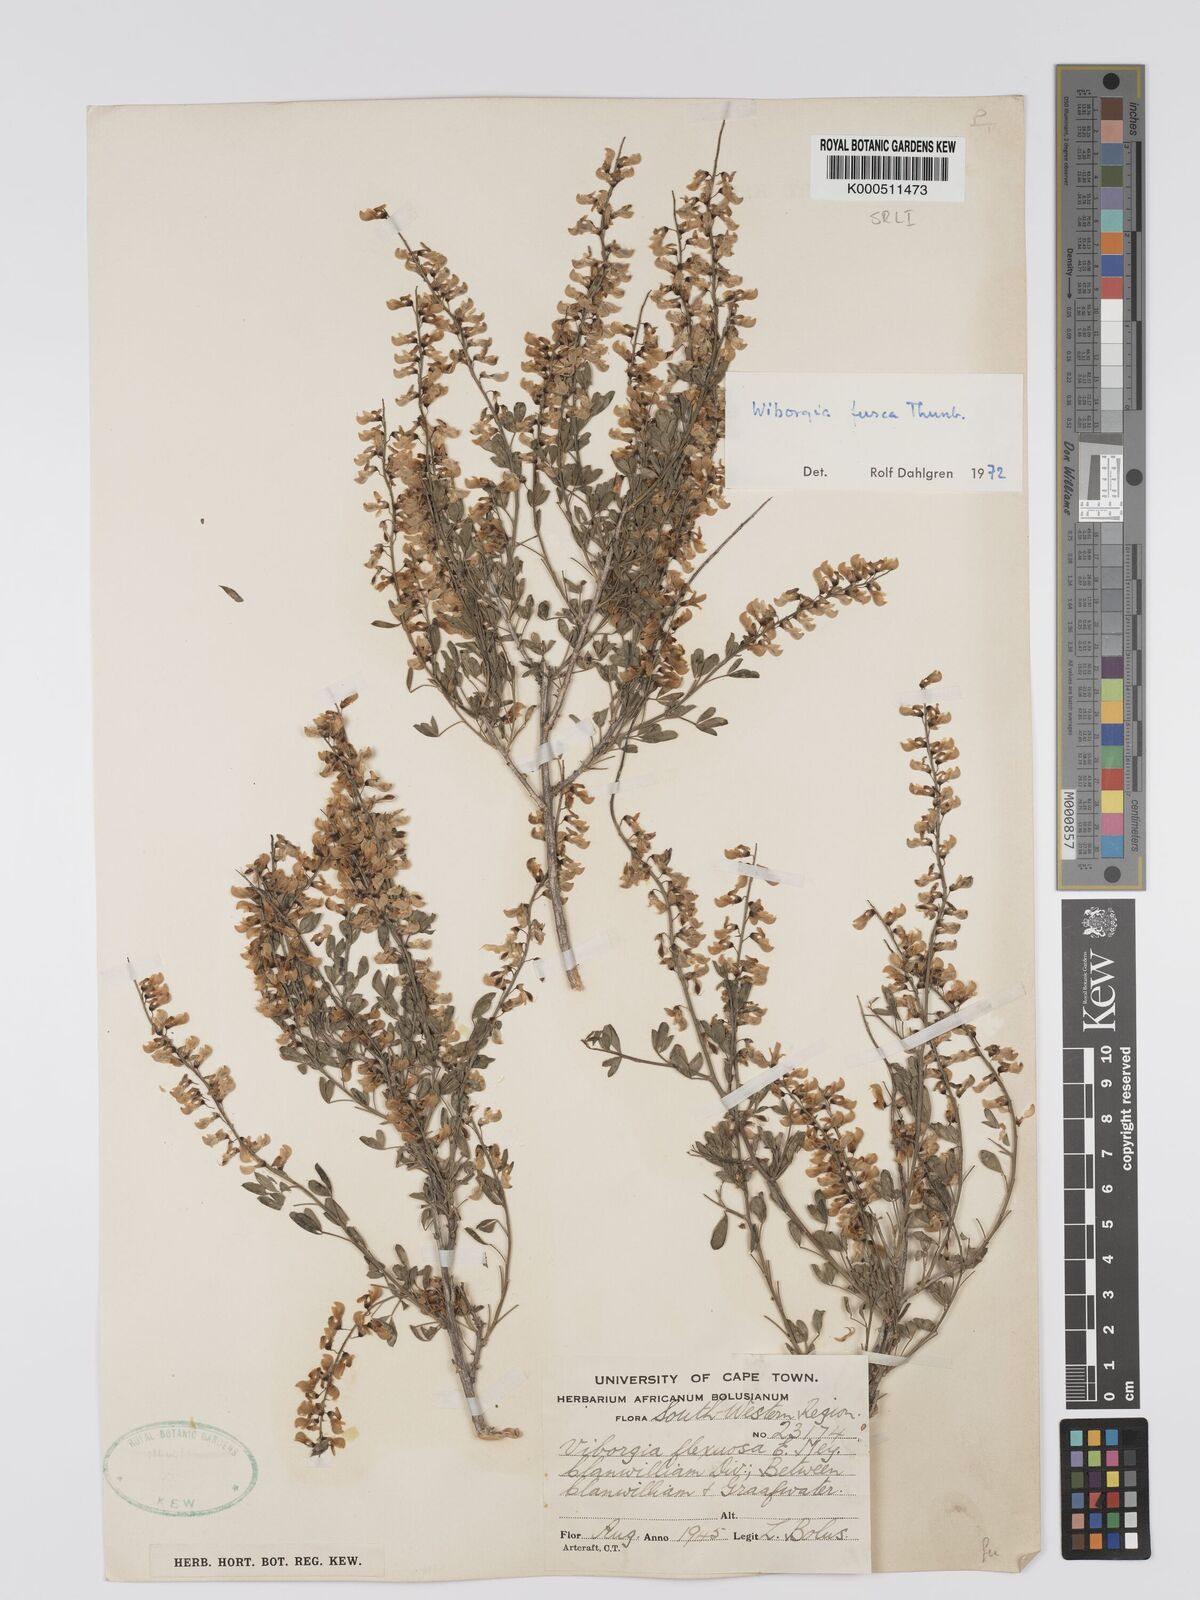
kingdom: Plantae
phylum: Tracheophyta
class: Magnoliopsida
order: Fabales
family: Fabaceae
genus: Wiborgia
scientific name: Wiborgia fusca
